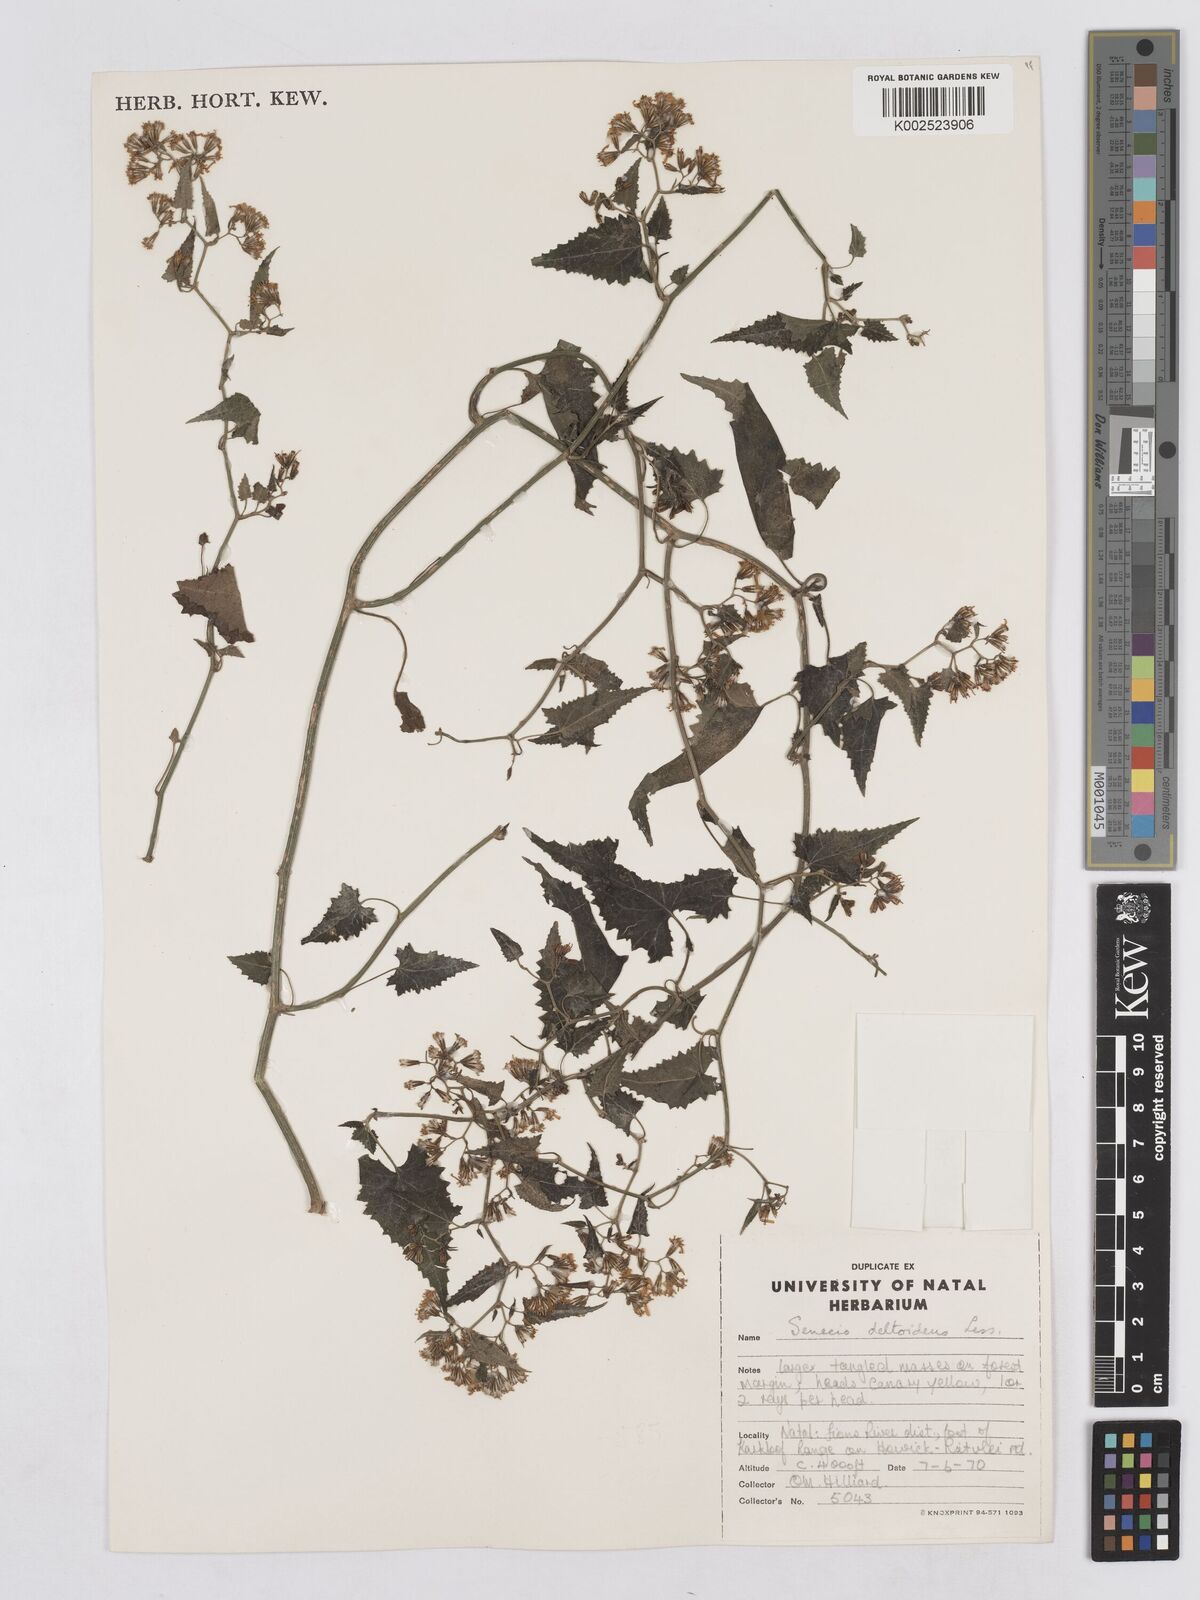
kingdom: Plantae
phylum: Tracheophyta
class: Magnoliopsida
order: Asterales
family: Asteraceae
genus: Senecio
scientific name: Senecio deltoideus
